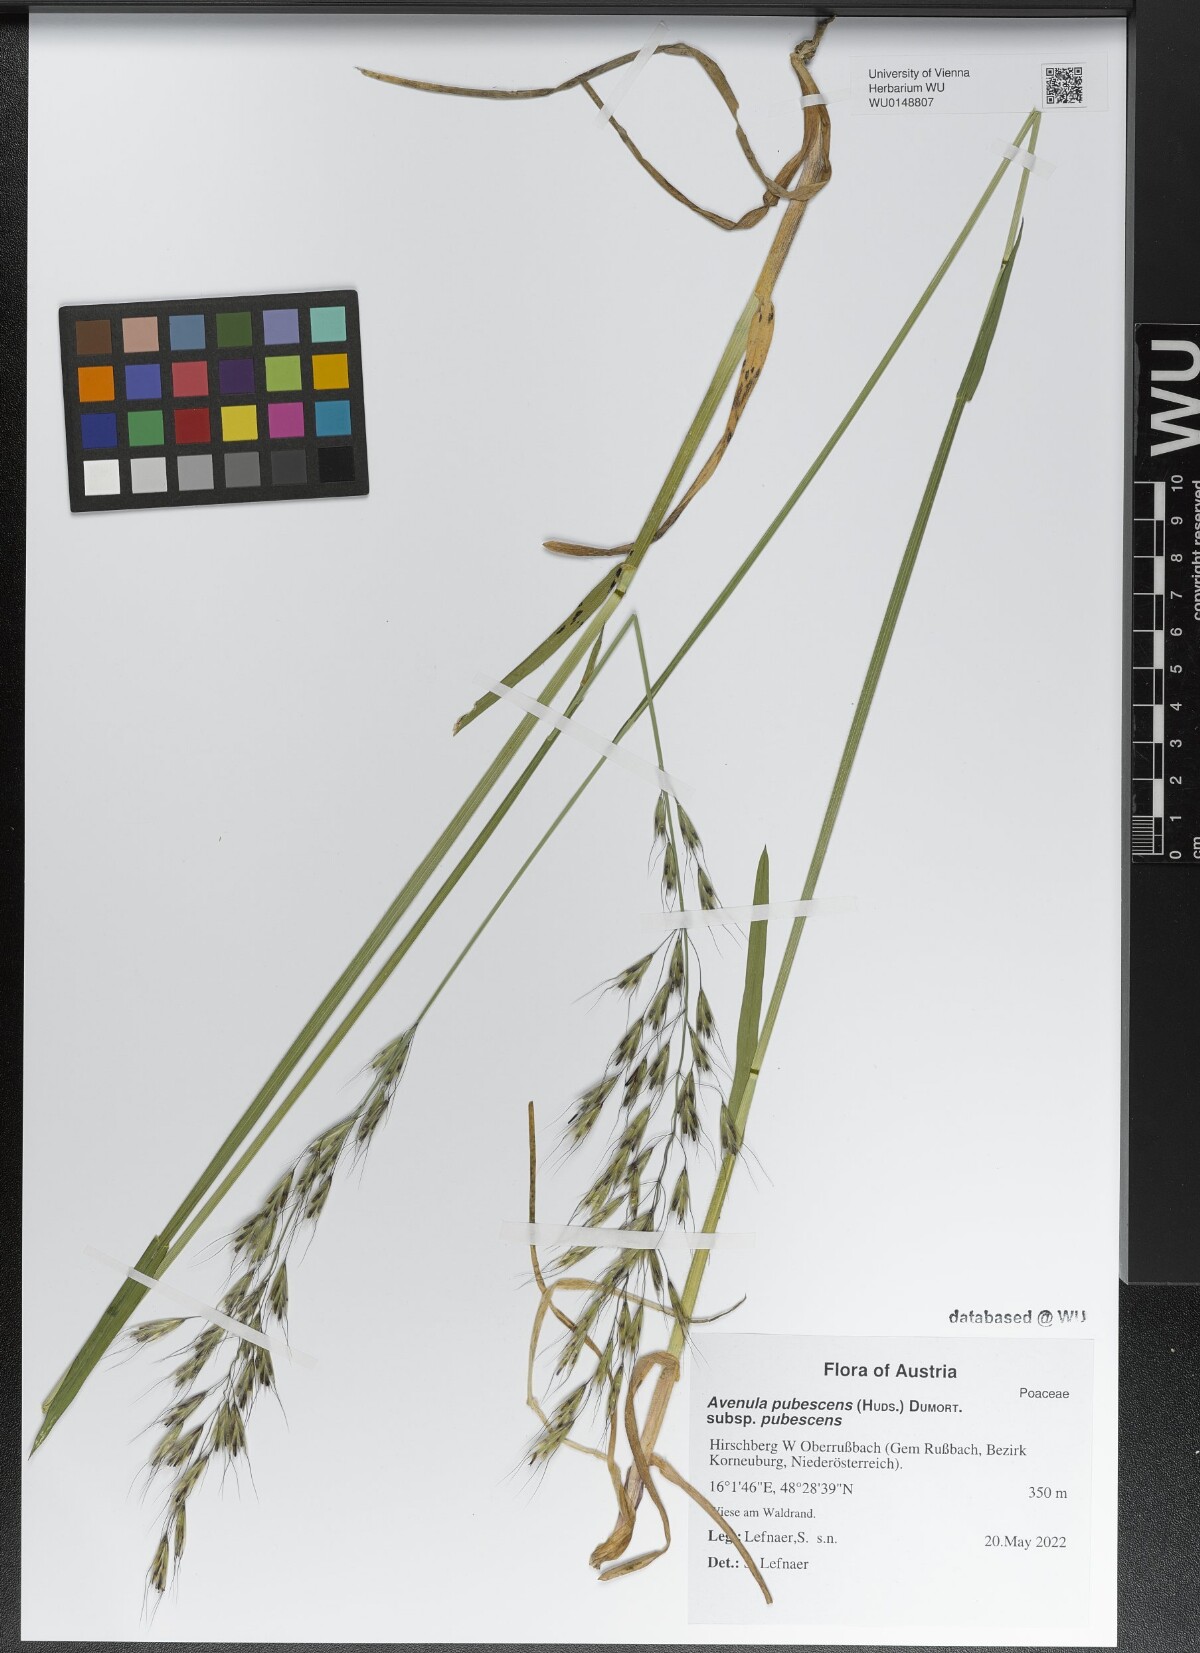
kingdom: Plantae
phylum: Tracheophyta
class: Liliopsida
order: Poales
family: Poaceae
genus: Avenula
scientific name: Avenula pubescens
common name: Downy alpine oatgrass
